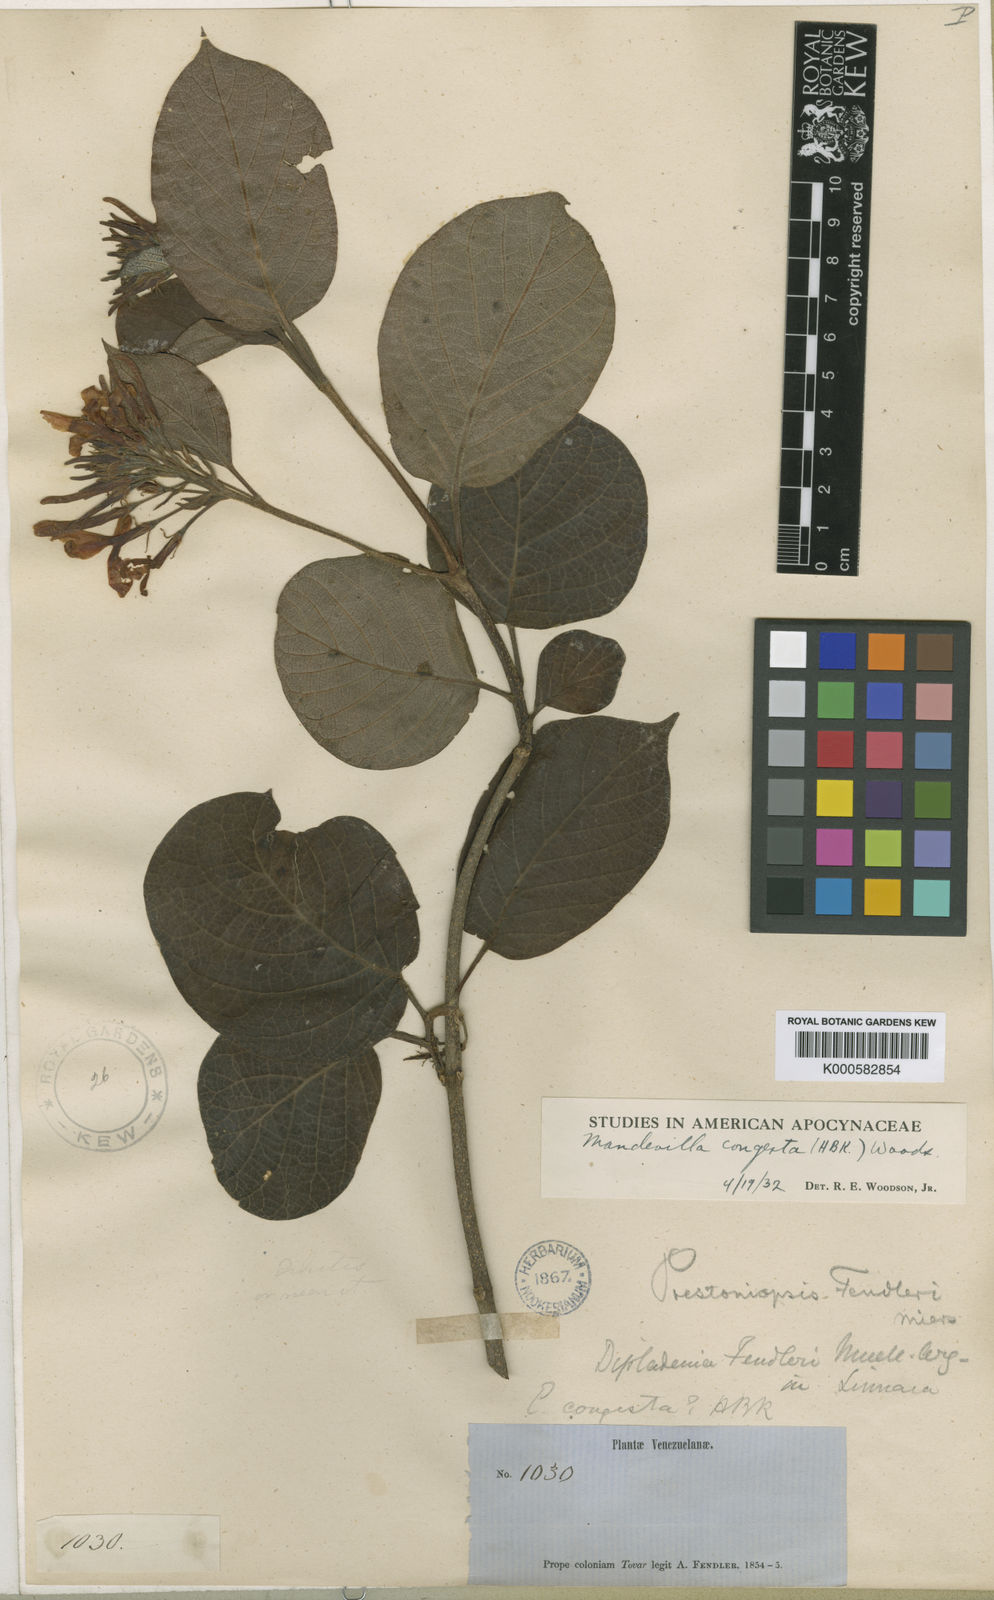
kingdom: Plantae
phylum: Tracheophyta
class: Magnoliopsida
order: Gentianales
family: Apocynaceae
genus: Mandevilla
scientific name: Mandevilla congesta
